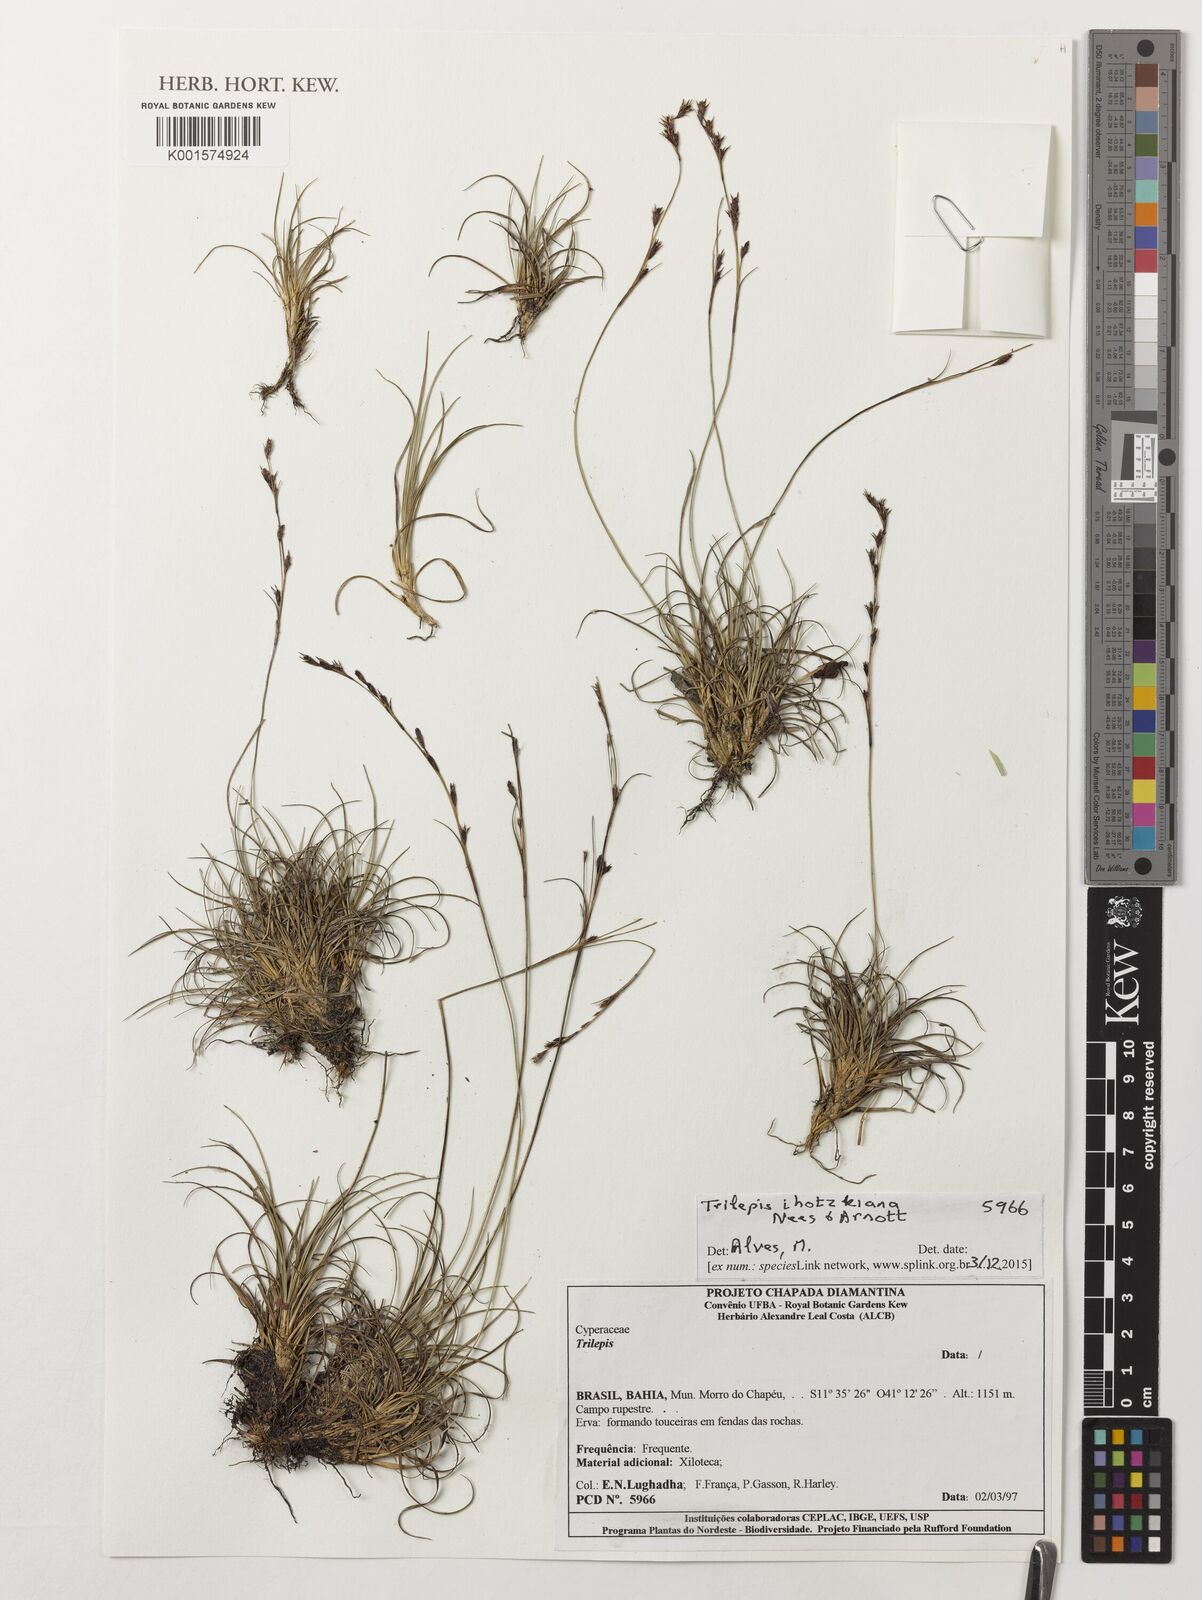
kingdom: Plantae
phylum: Tracheophyta
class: Liliopsida
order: Poales
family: Cyperaceae
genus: Trilepis
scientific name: Trilepis lhotzkiana
